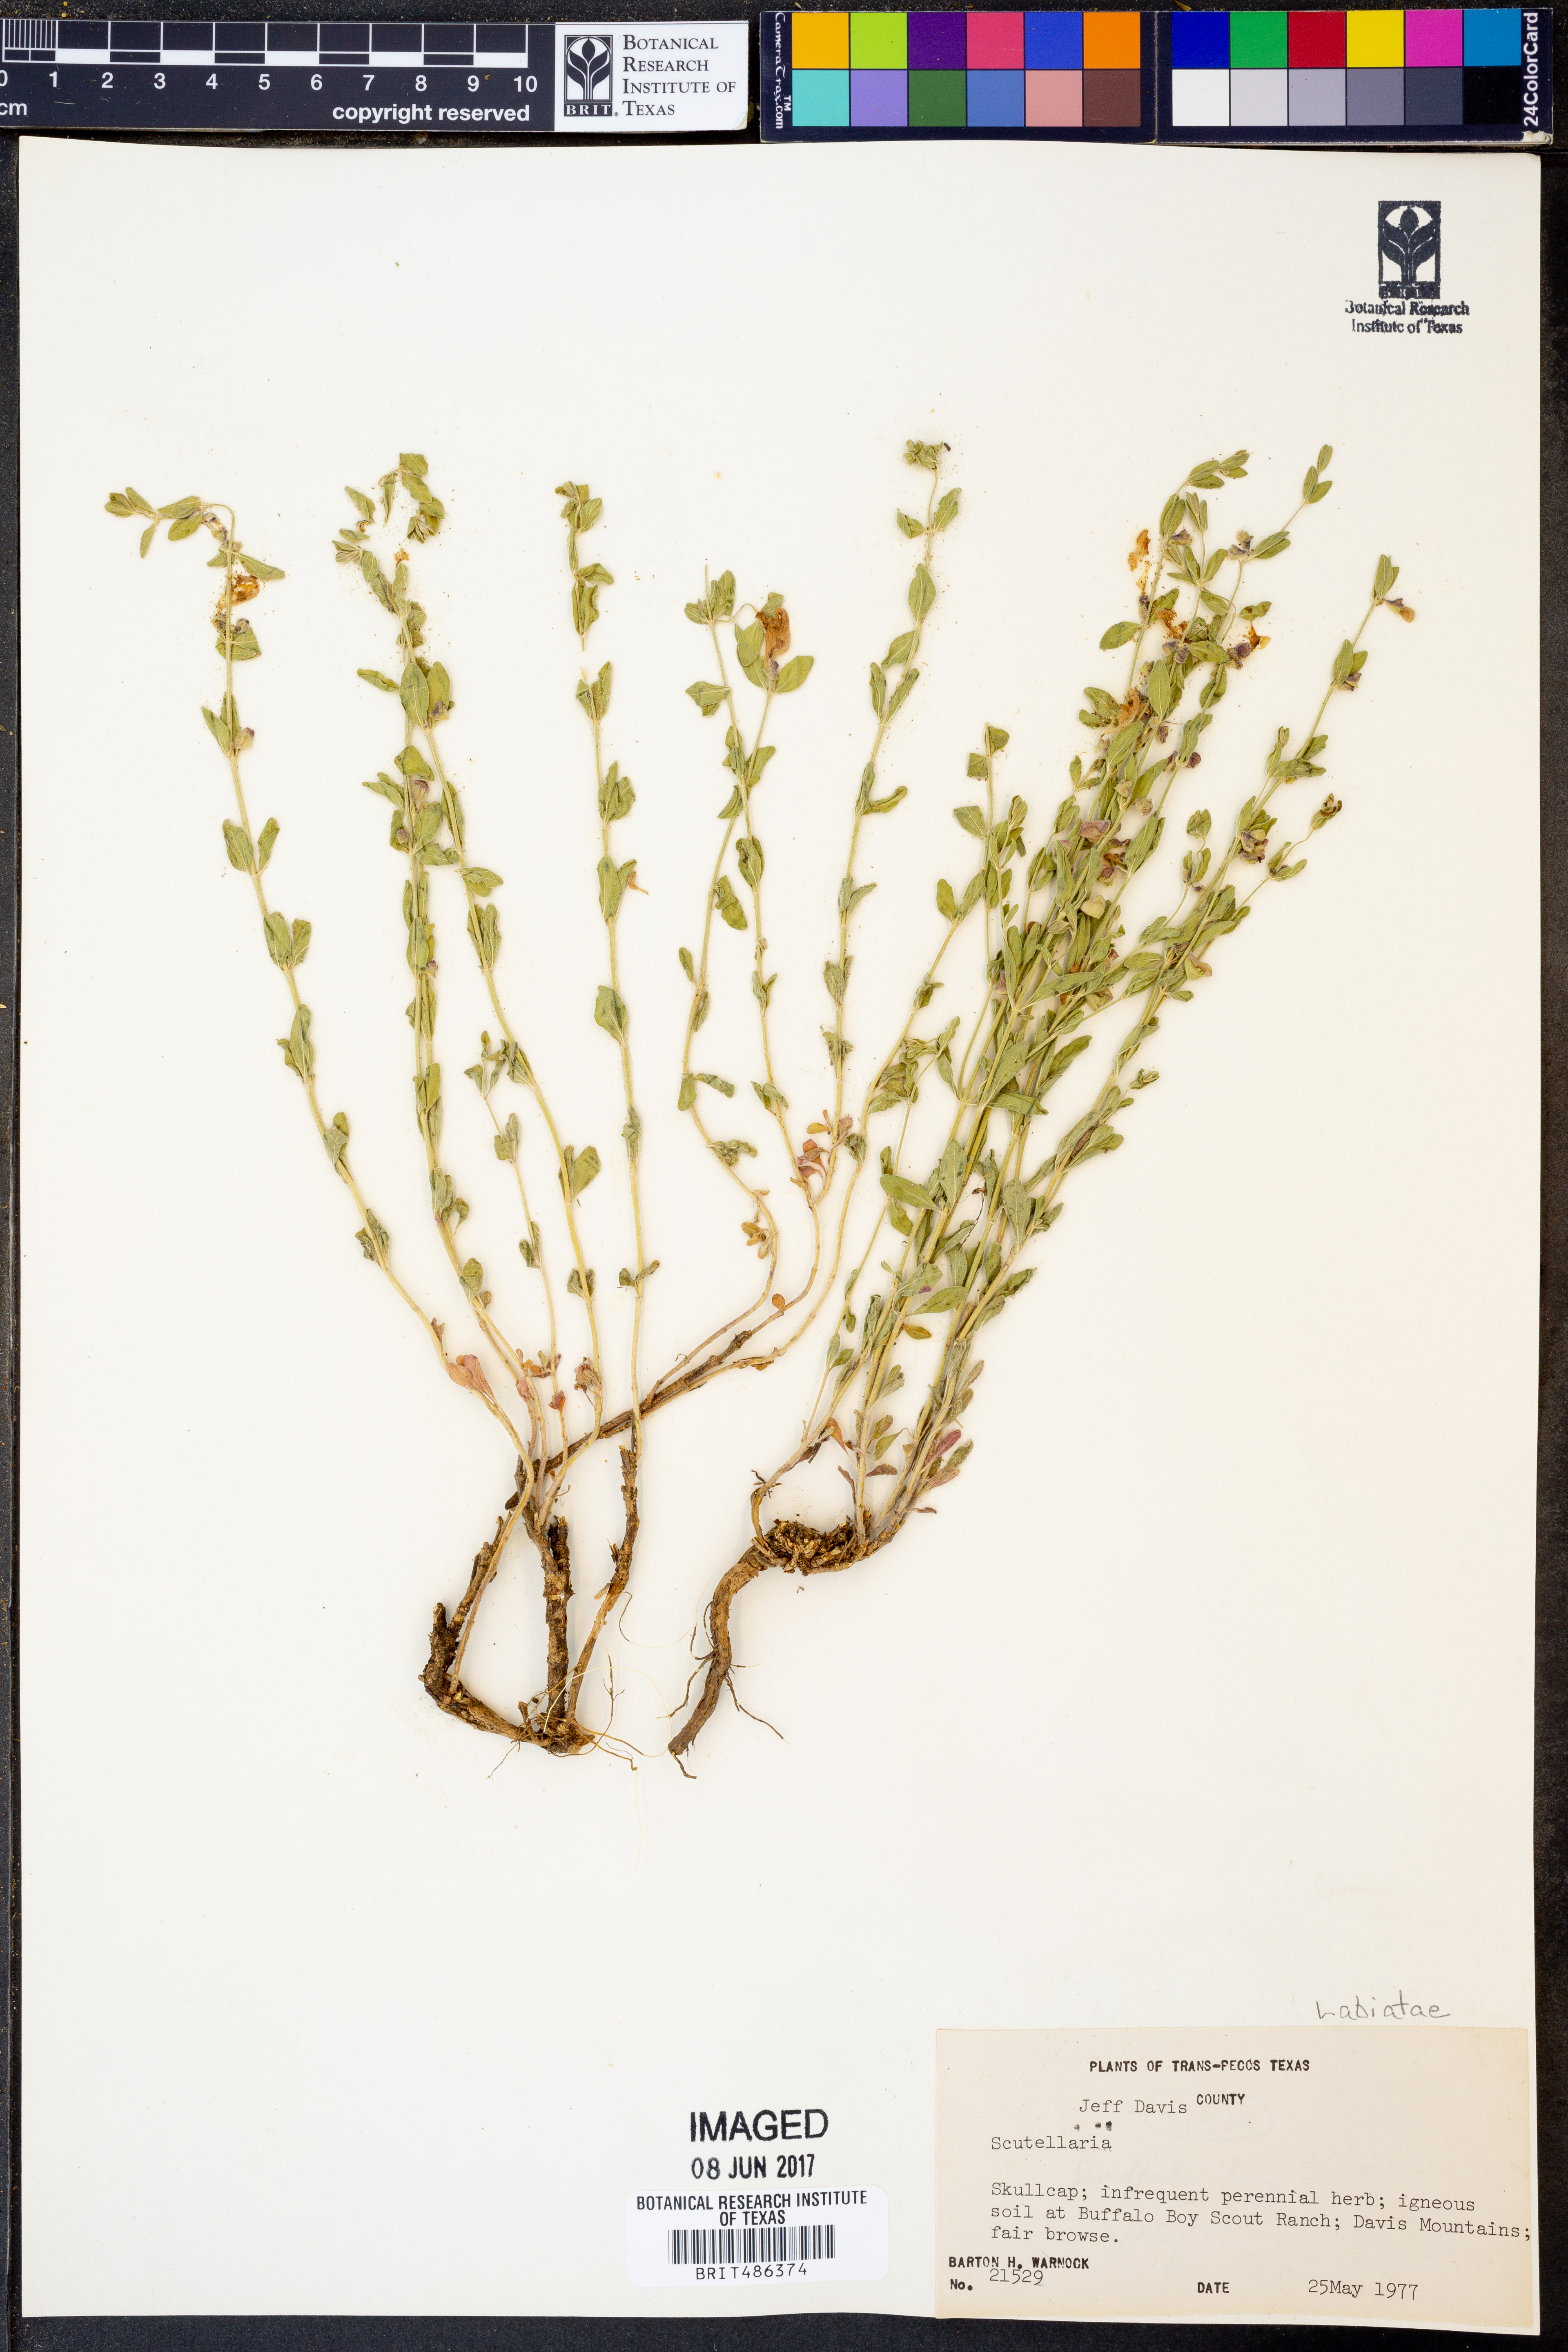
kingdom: Plantae
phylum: Tracheophyta
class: Magnoliopsida
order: Lamiales
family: Lamiaceae
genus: Scutellaria
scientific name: Scutellaria
